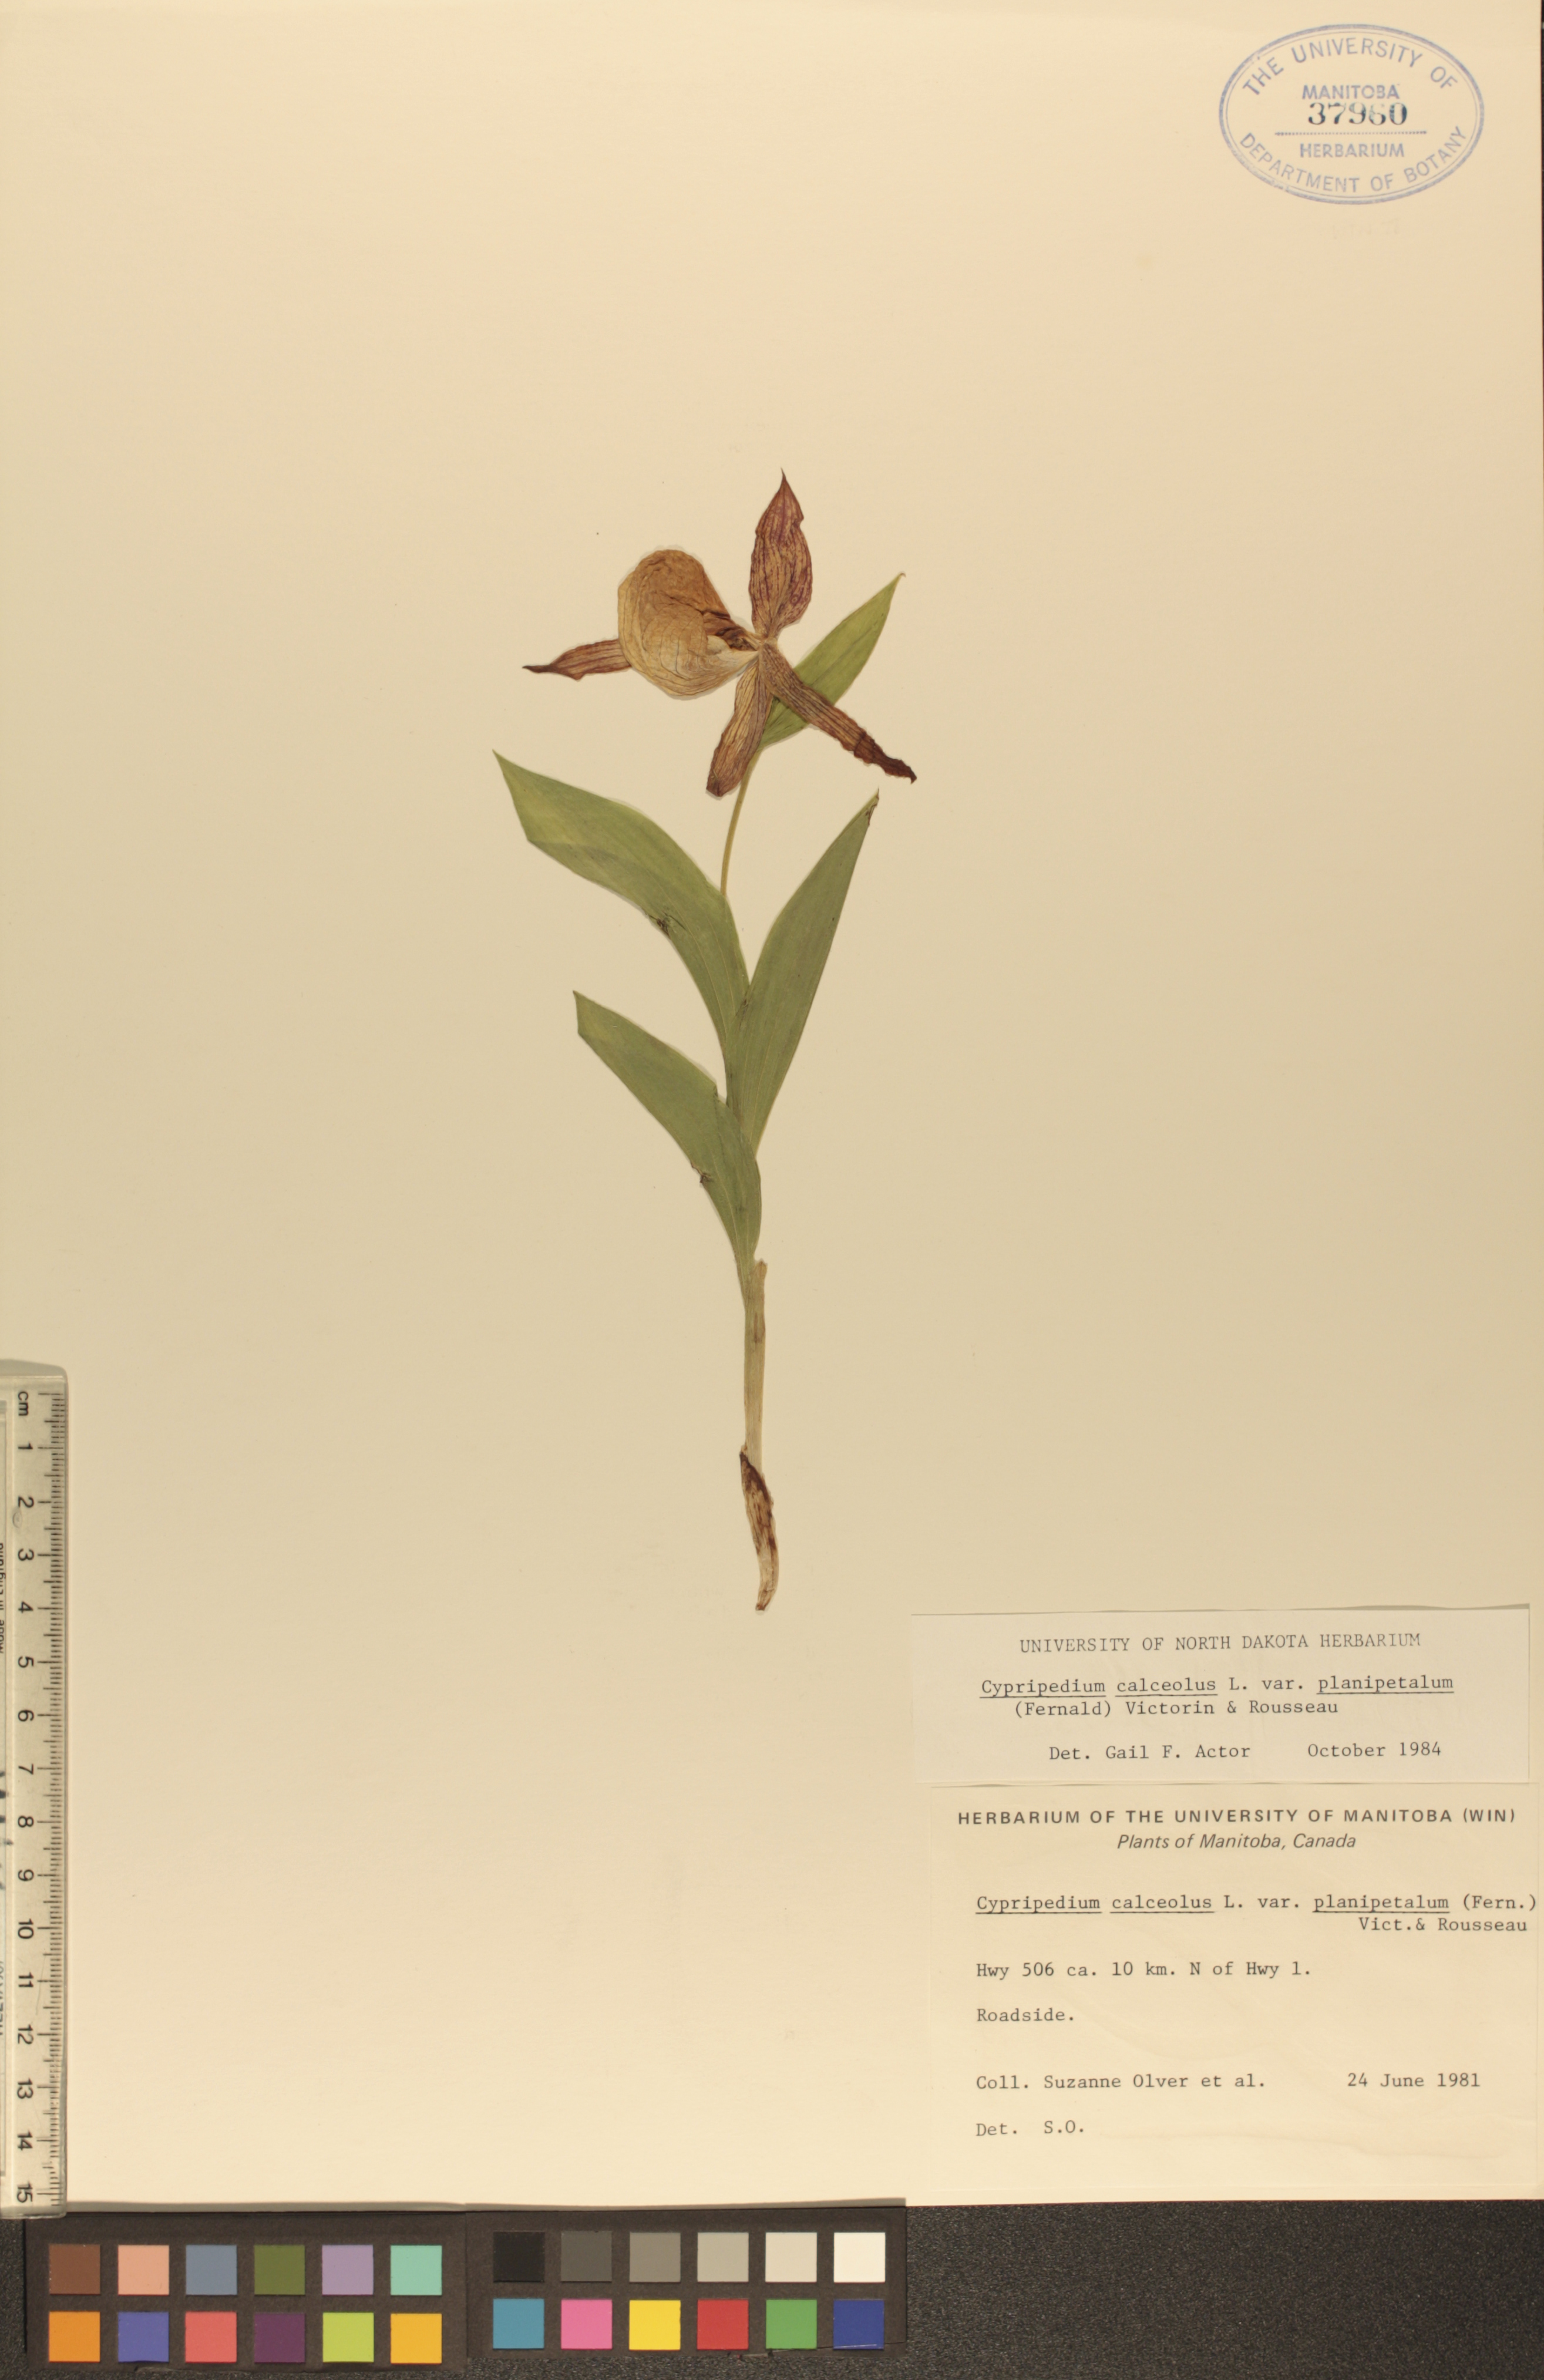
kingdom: Plantae
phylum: Tracheophyta
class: Liliopsida
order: Asparagales
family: Orchidaceae
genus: Cypripedium
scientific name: Cypripedium parviflorum
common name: American yellow lady's-slipper
